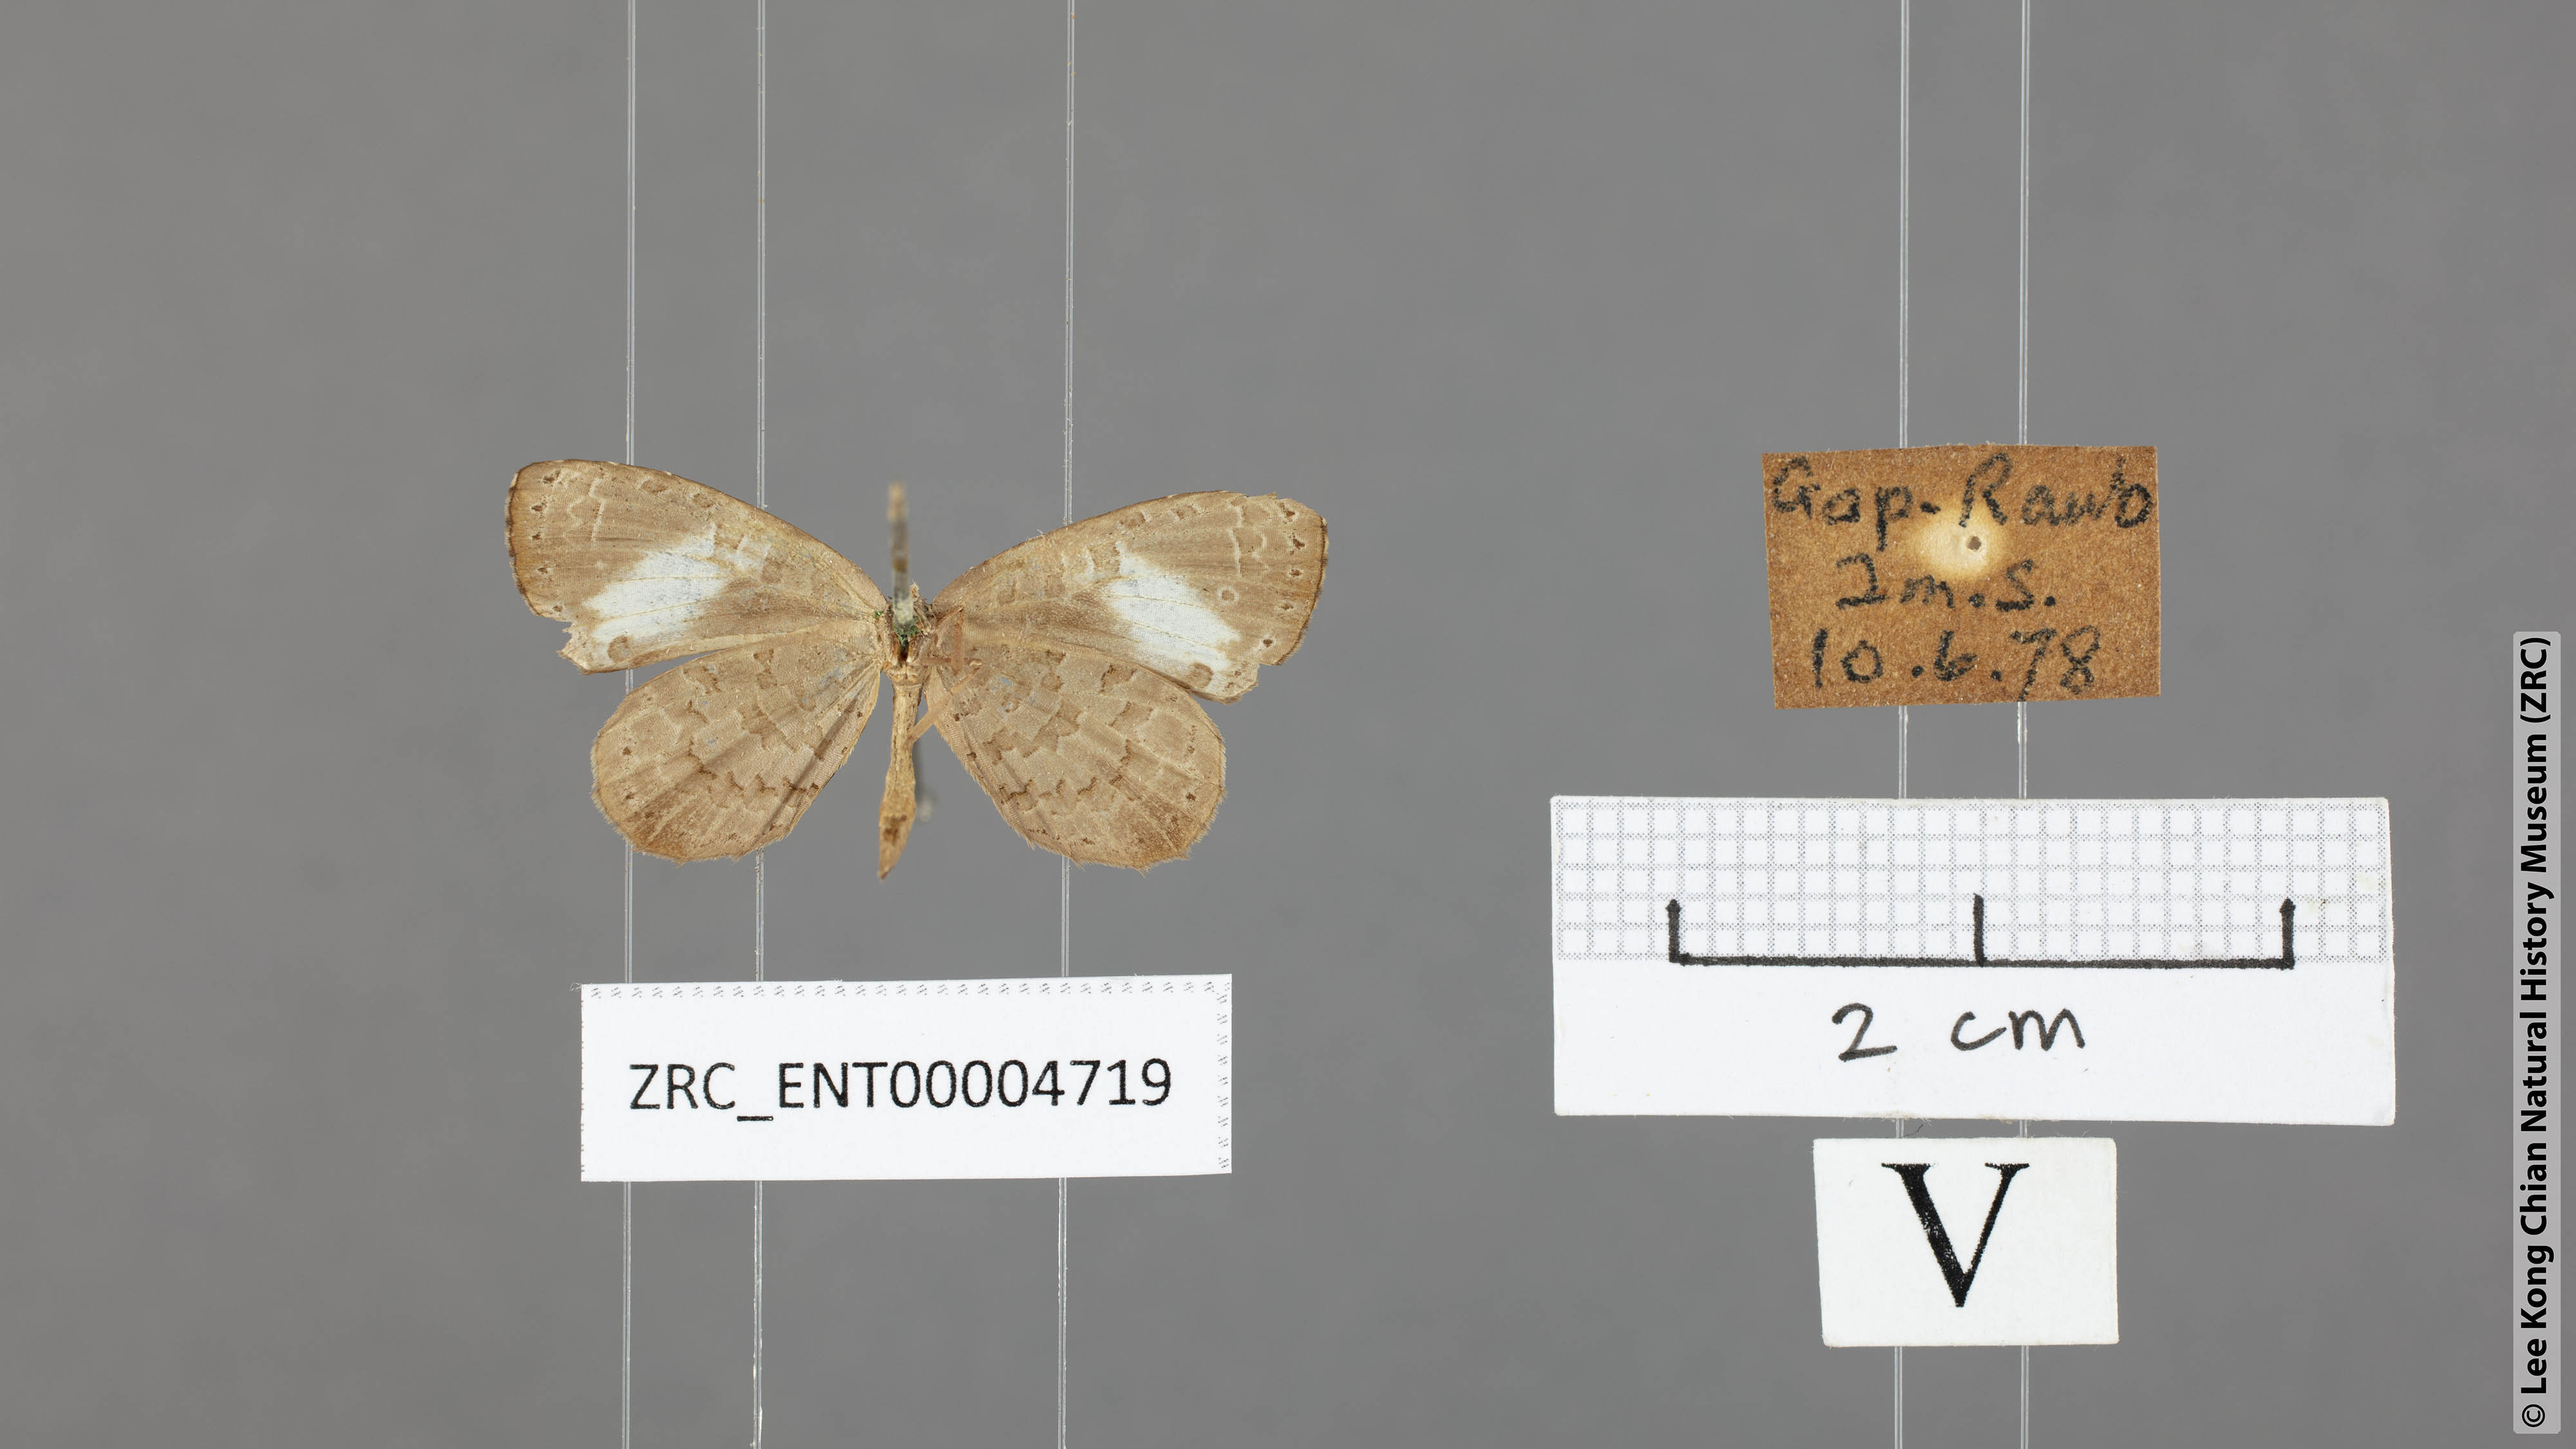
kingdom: Animalia
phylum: Arthropoda
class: Insecta
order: Lepidoptera
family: Lycaenidae
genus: Miletus
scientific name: Miletus biggsii
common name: Bigg's brownie
